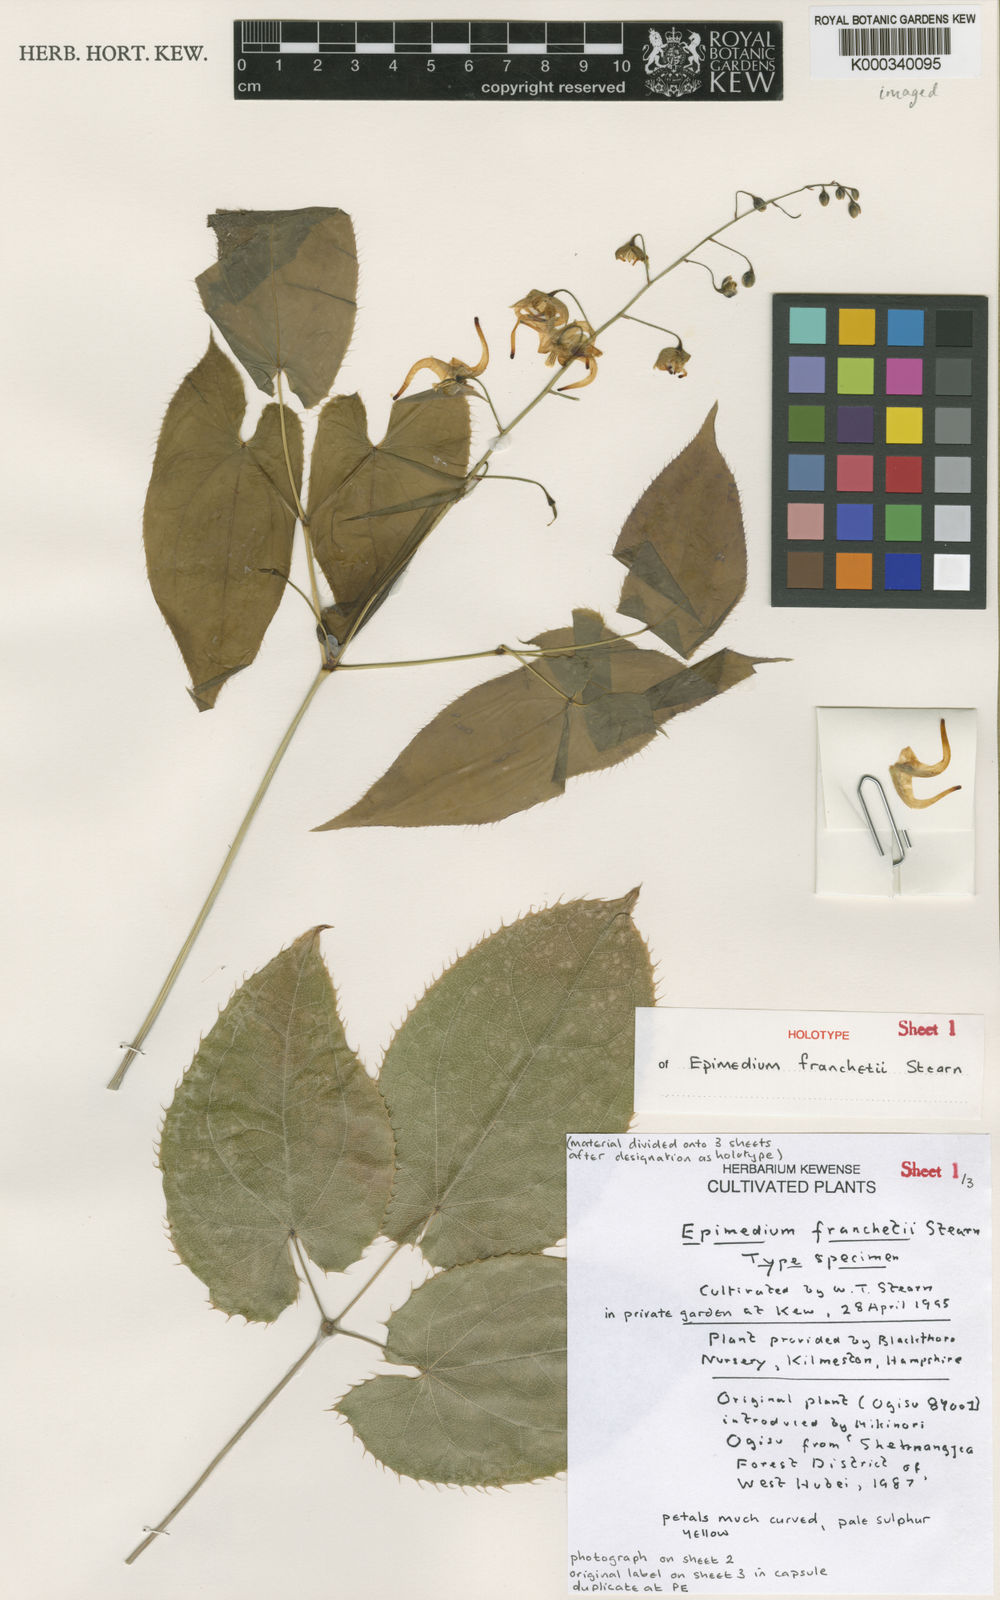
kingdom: Plantae
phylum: Tracheophyta
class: Magnoliopsida
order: Ranunculales
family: Berberidaceae
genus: Epimedium
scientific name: Epimedium franchetii
